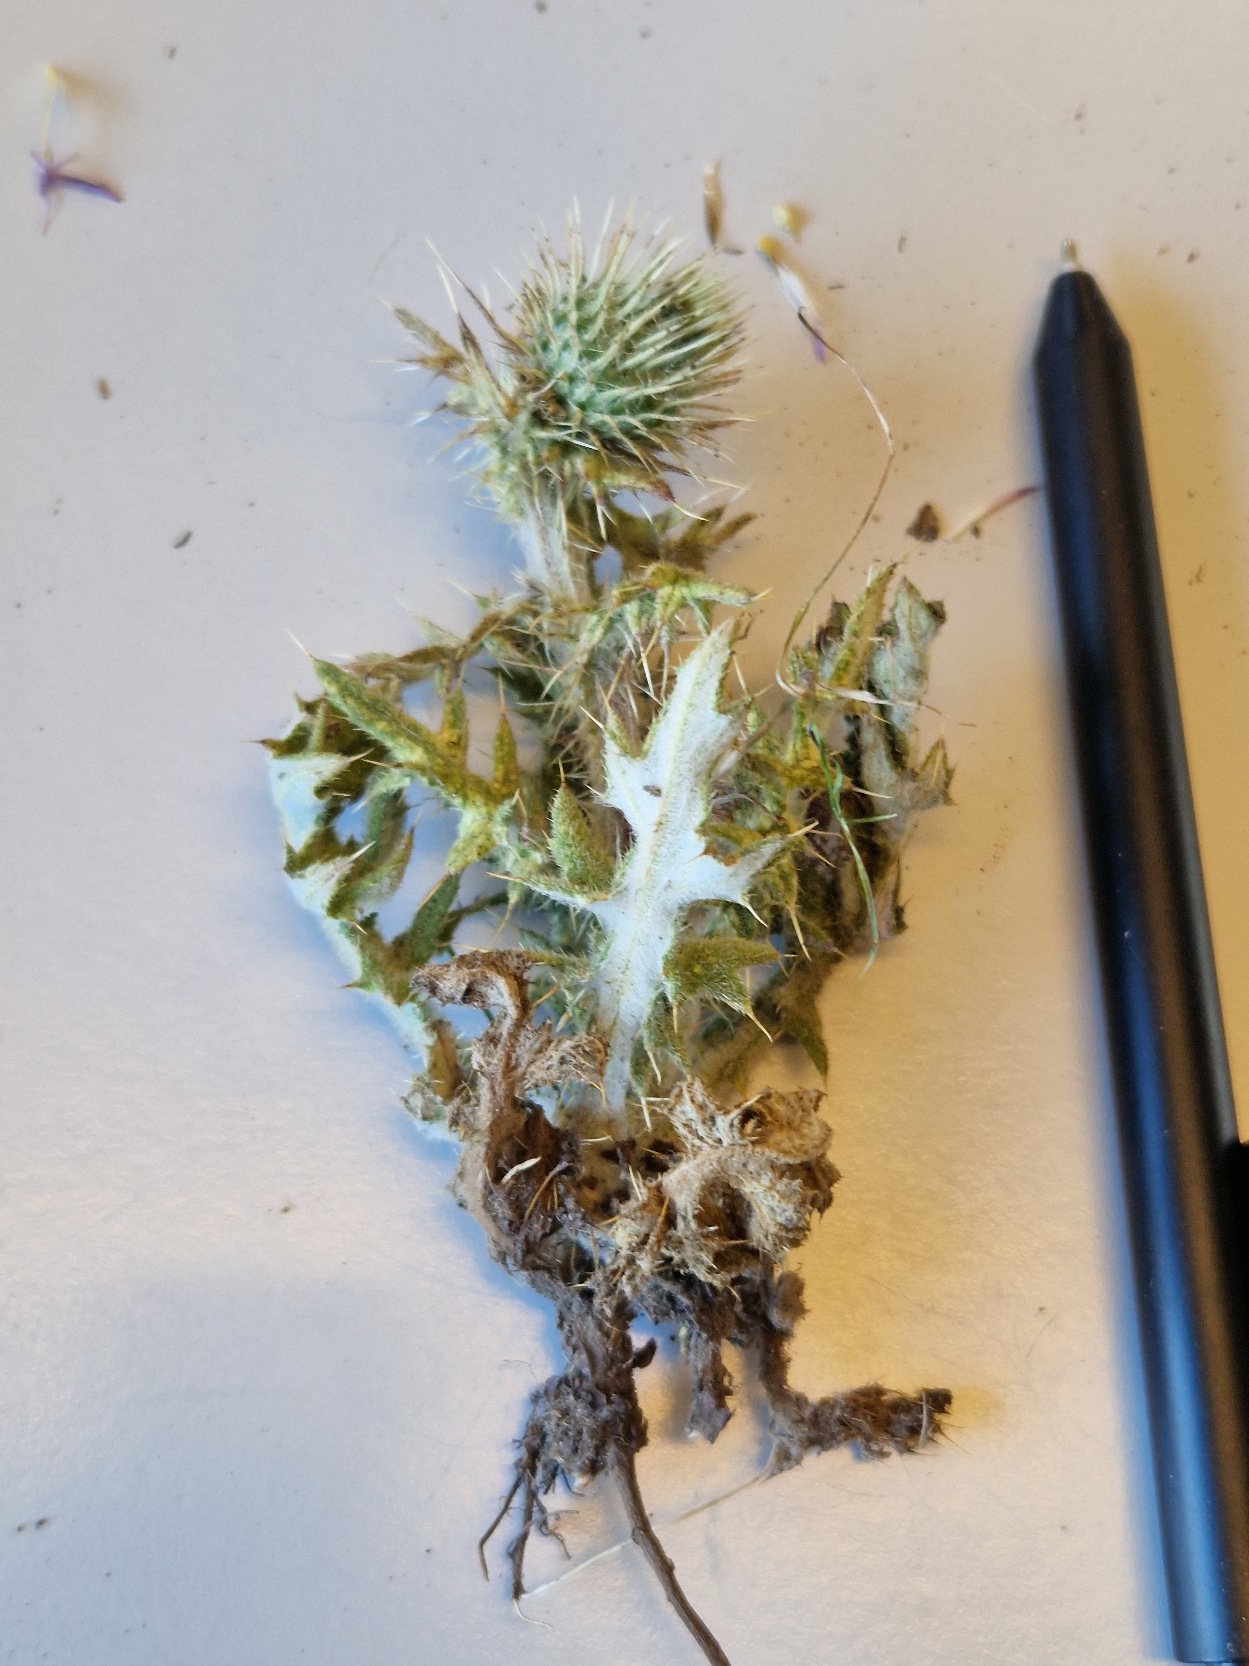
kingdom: Plantae
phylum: Tracheophyta
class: Magnoliopsida
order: Asterales
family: Asteraceae
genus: Cirsium
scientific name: Cirsium vulgare
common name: Horse-tidsel
